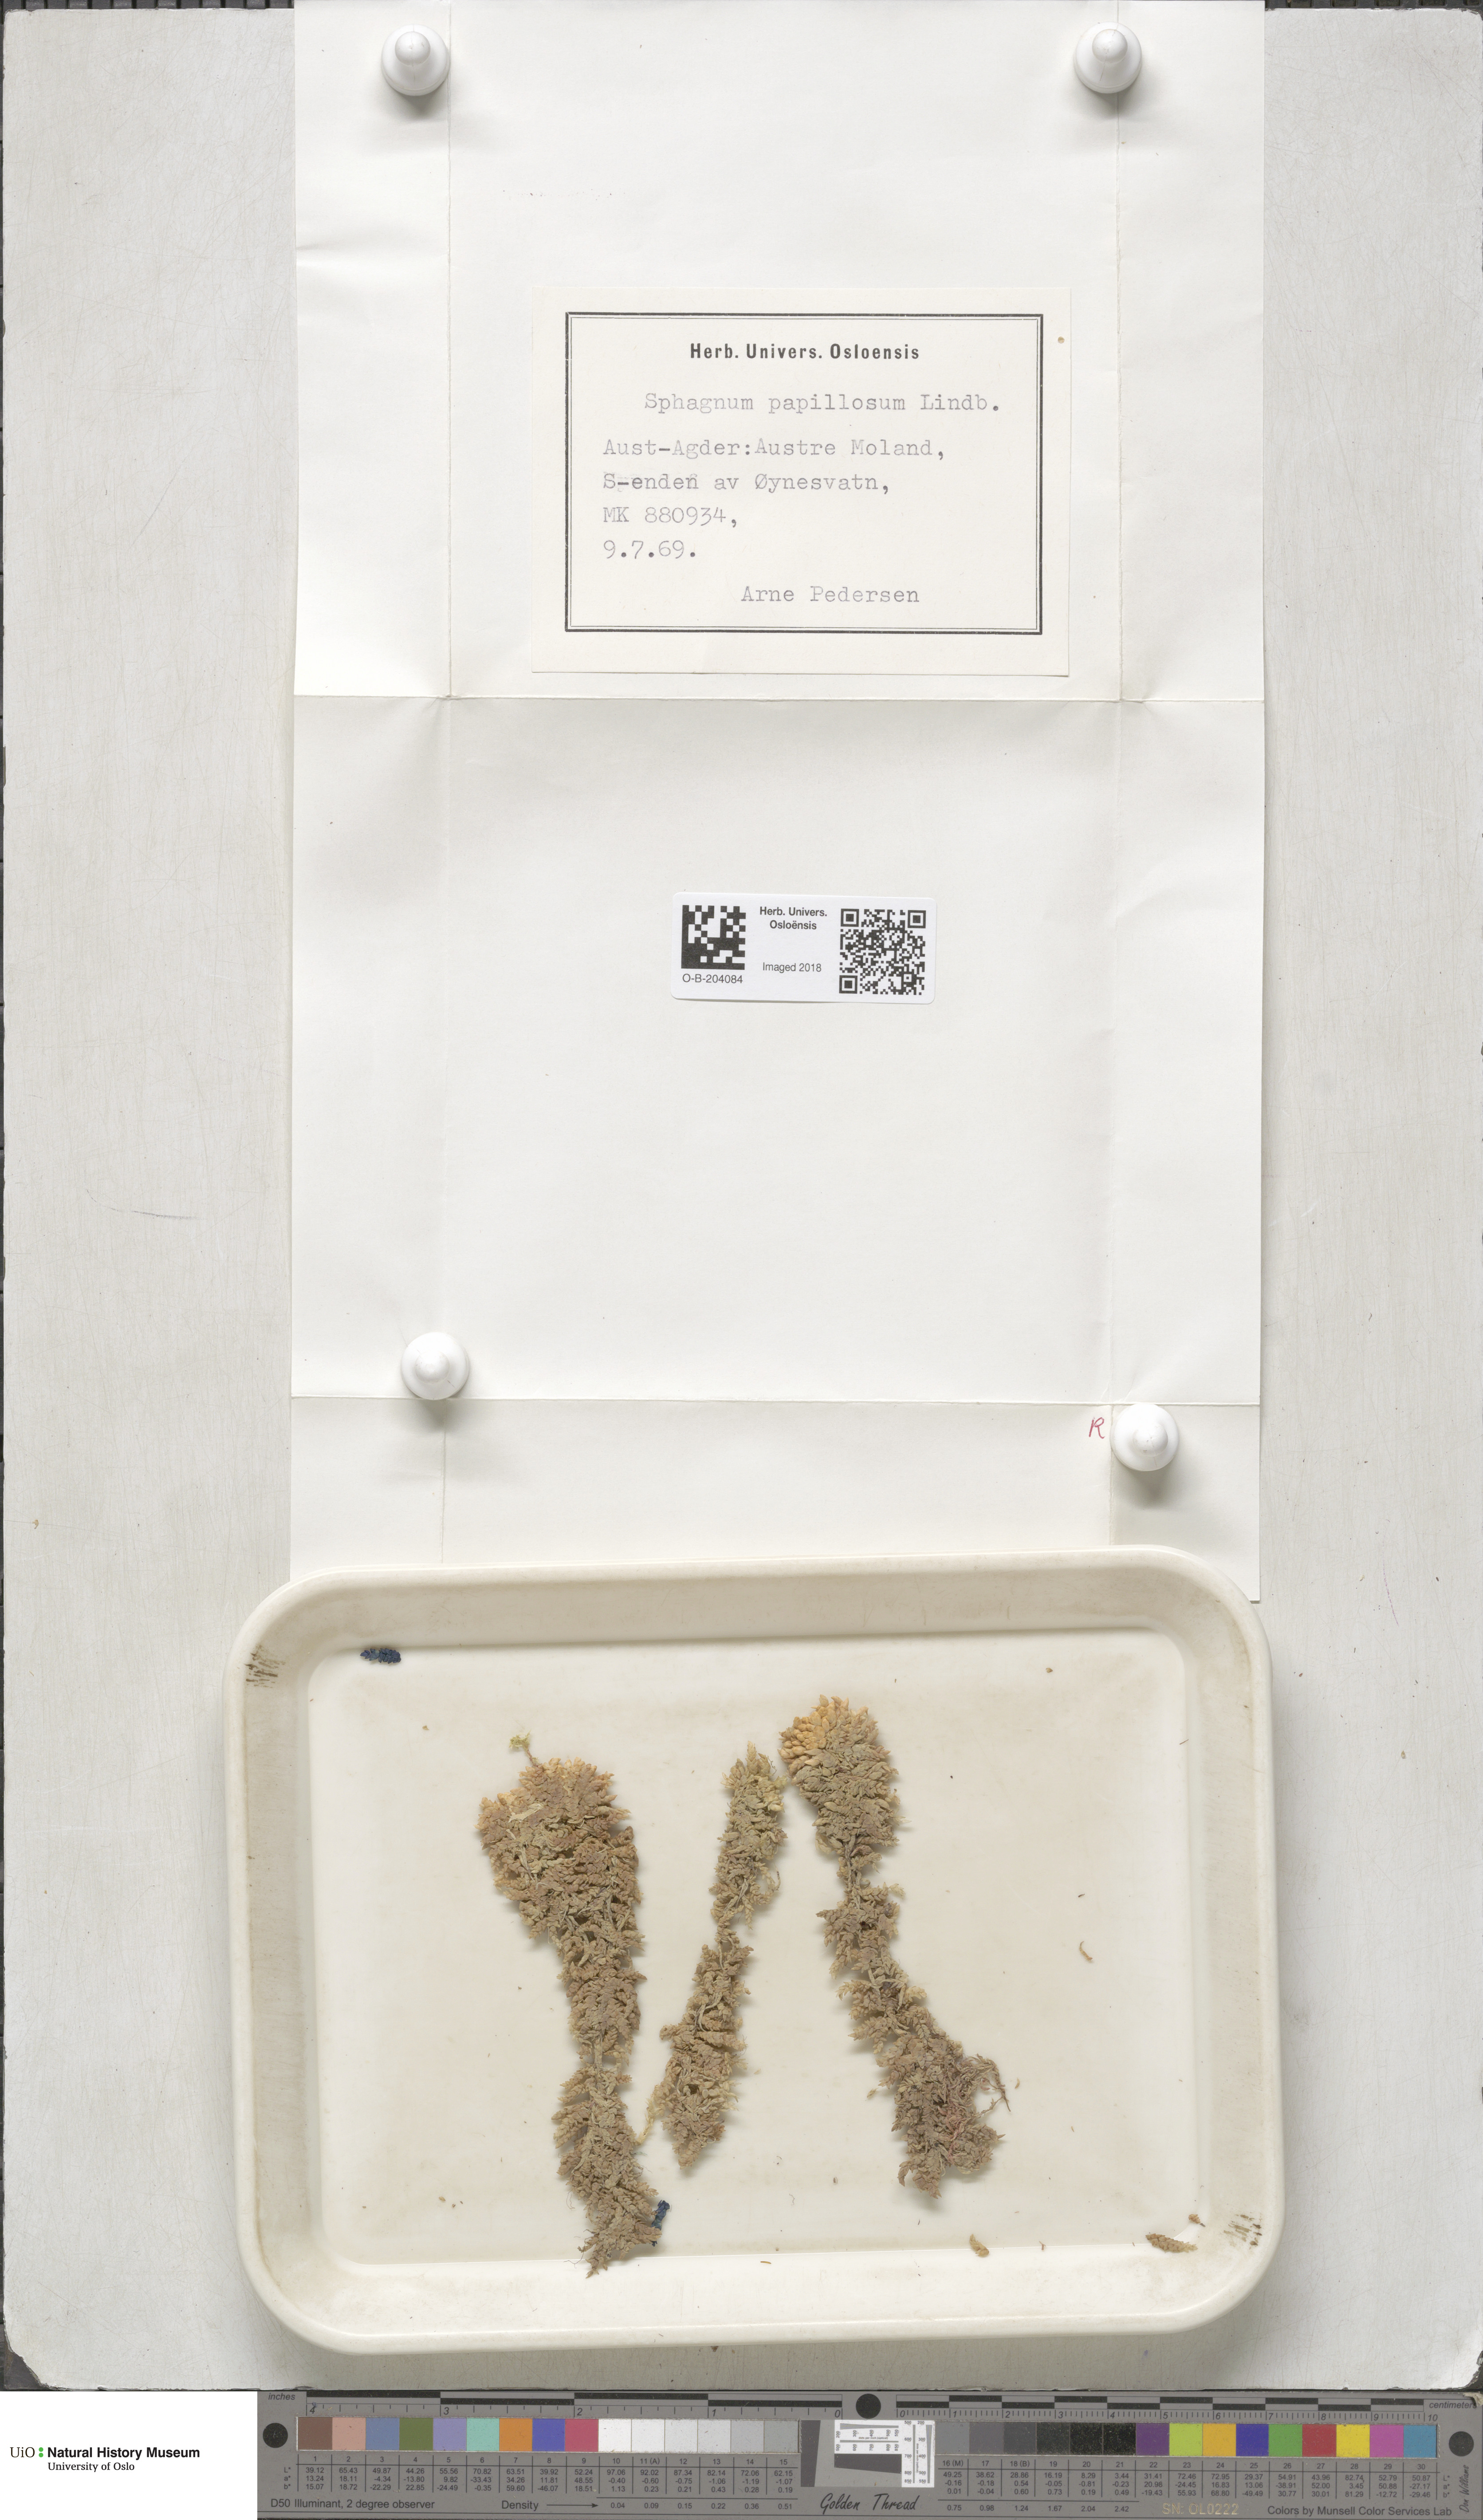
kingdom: Plantae
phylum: Bryophyta
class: Sphagnopsida
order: Sphagnales
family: Sphagnaceae
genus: Sphagnum
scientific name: Sphagnum papillosum
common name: Papillose peat moss
